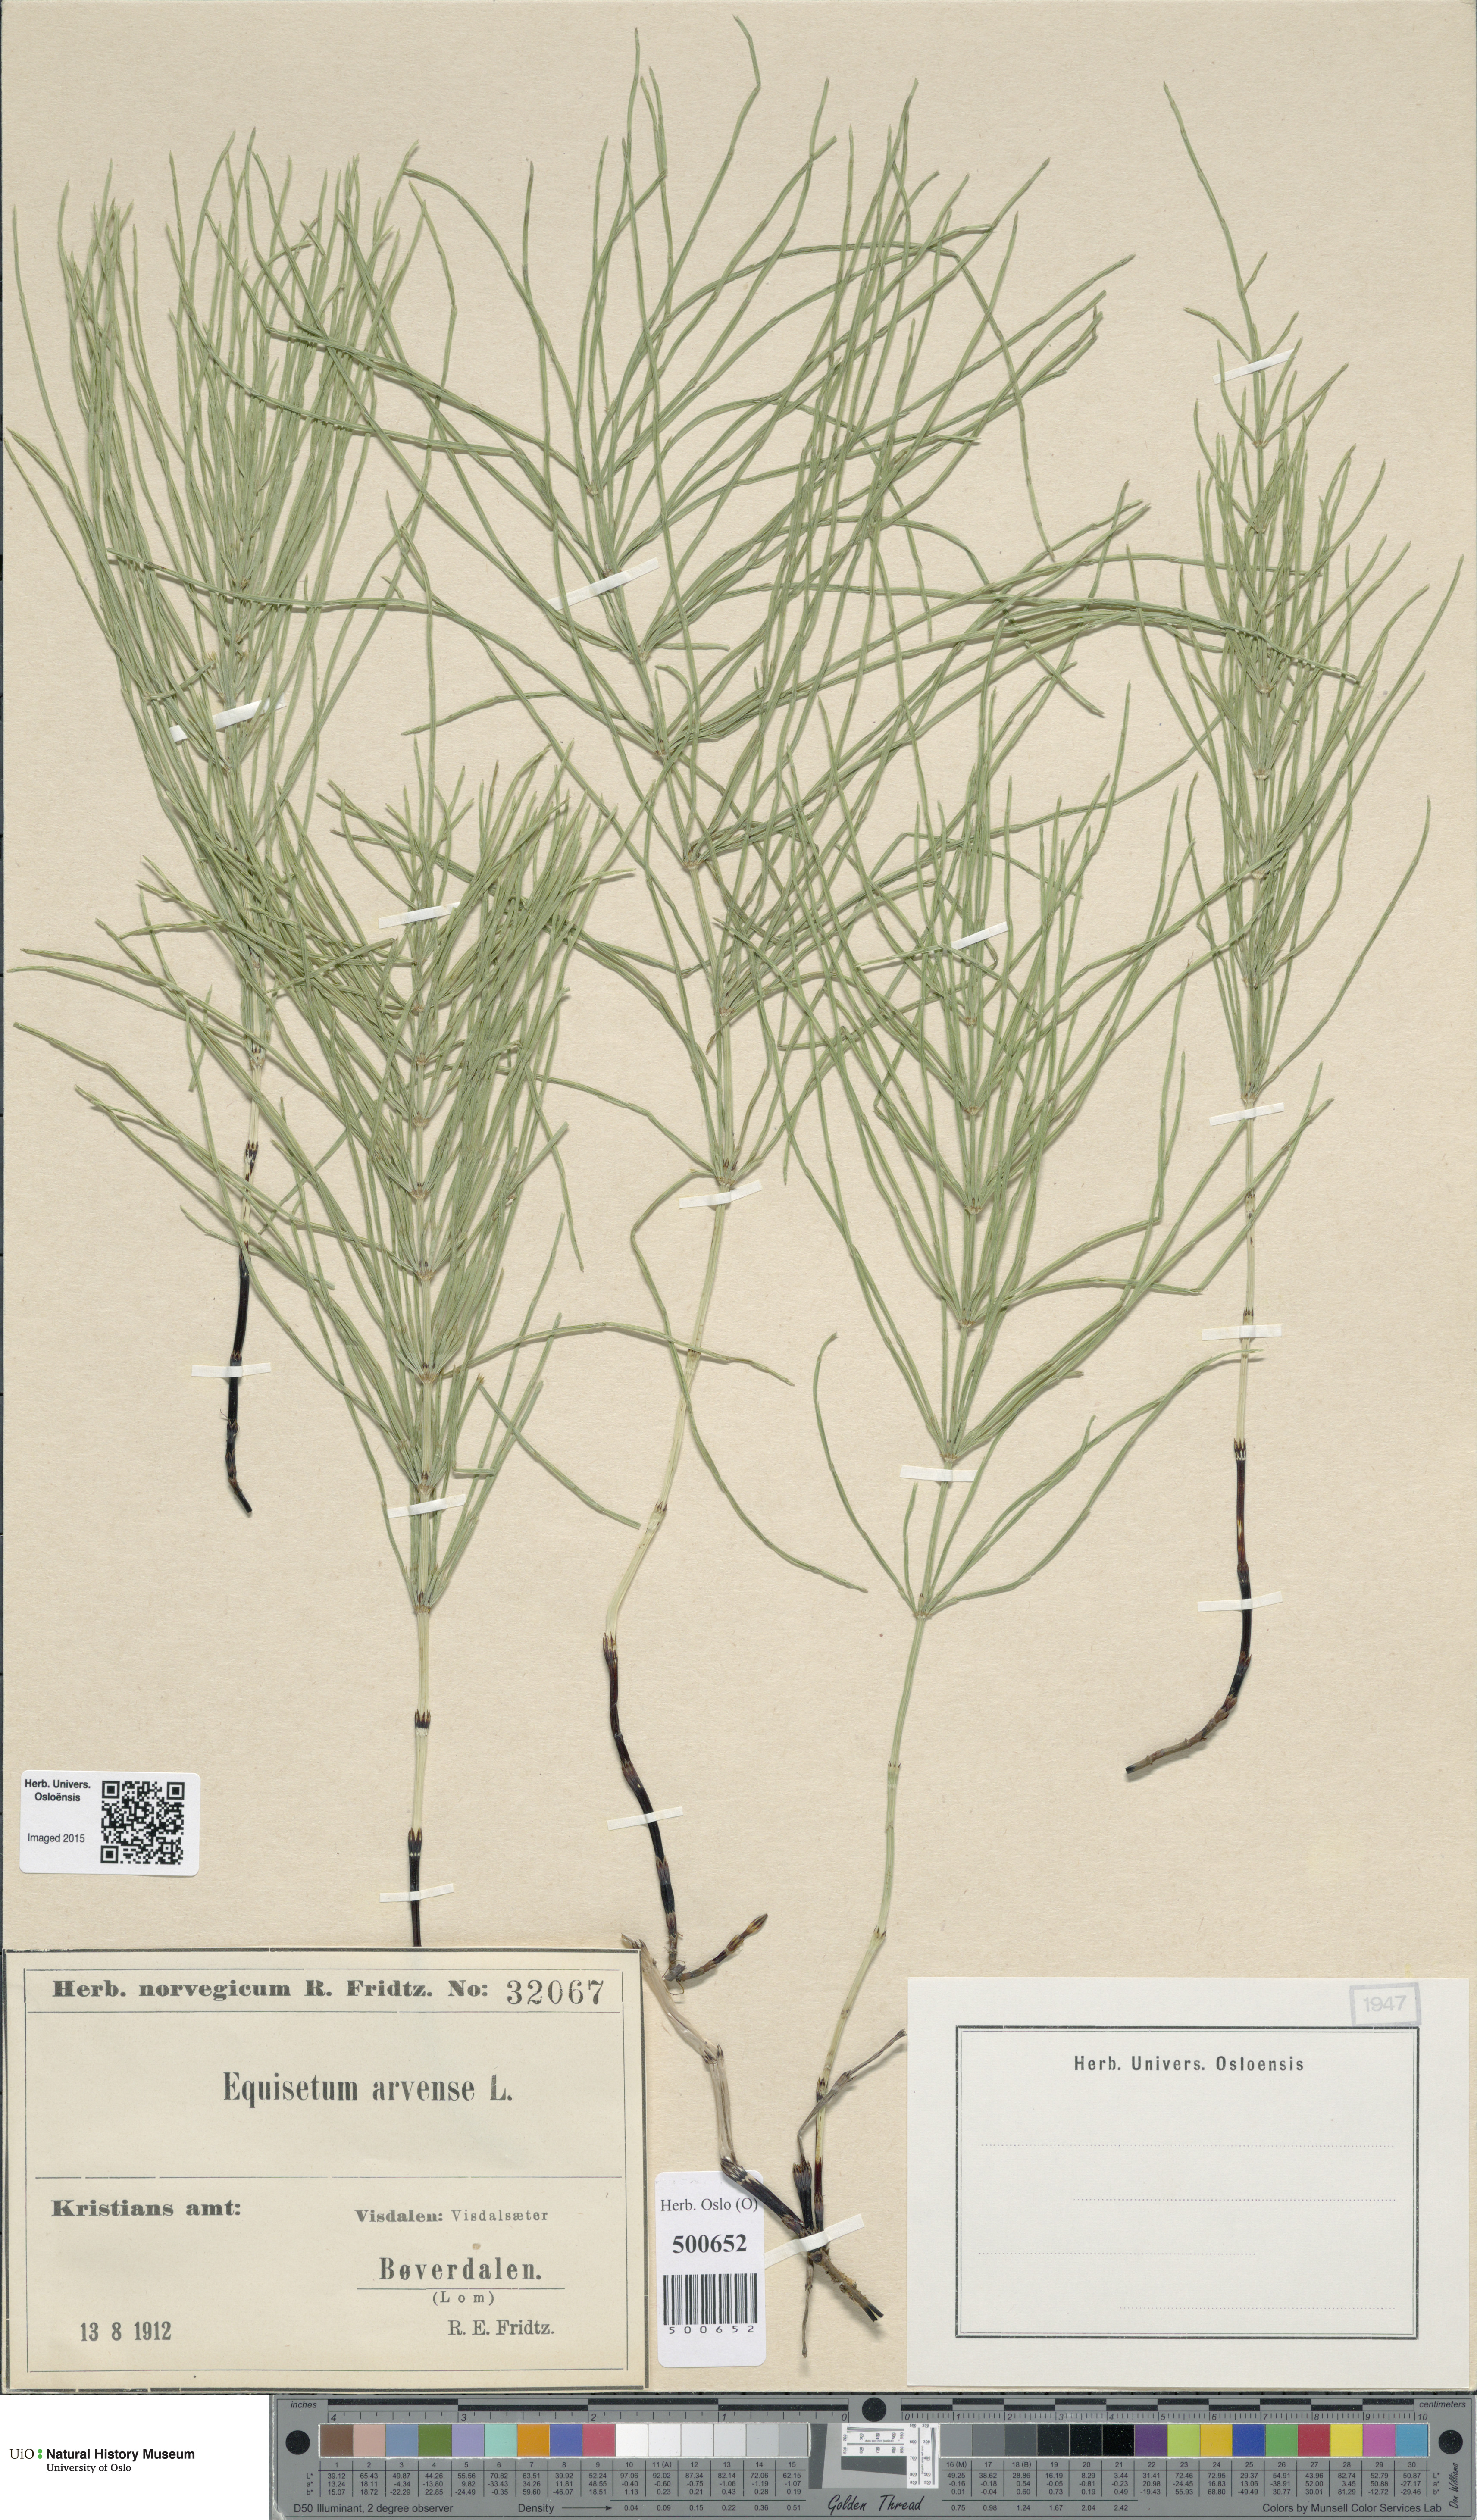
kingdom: Plantae
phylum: Tracheophyta
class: Polypodiopsida
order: Equisetales
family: Equisetaceae
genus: Equisetum
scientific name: Equisetum arvense
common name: Field horsetail
